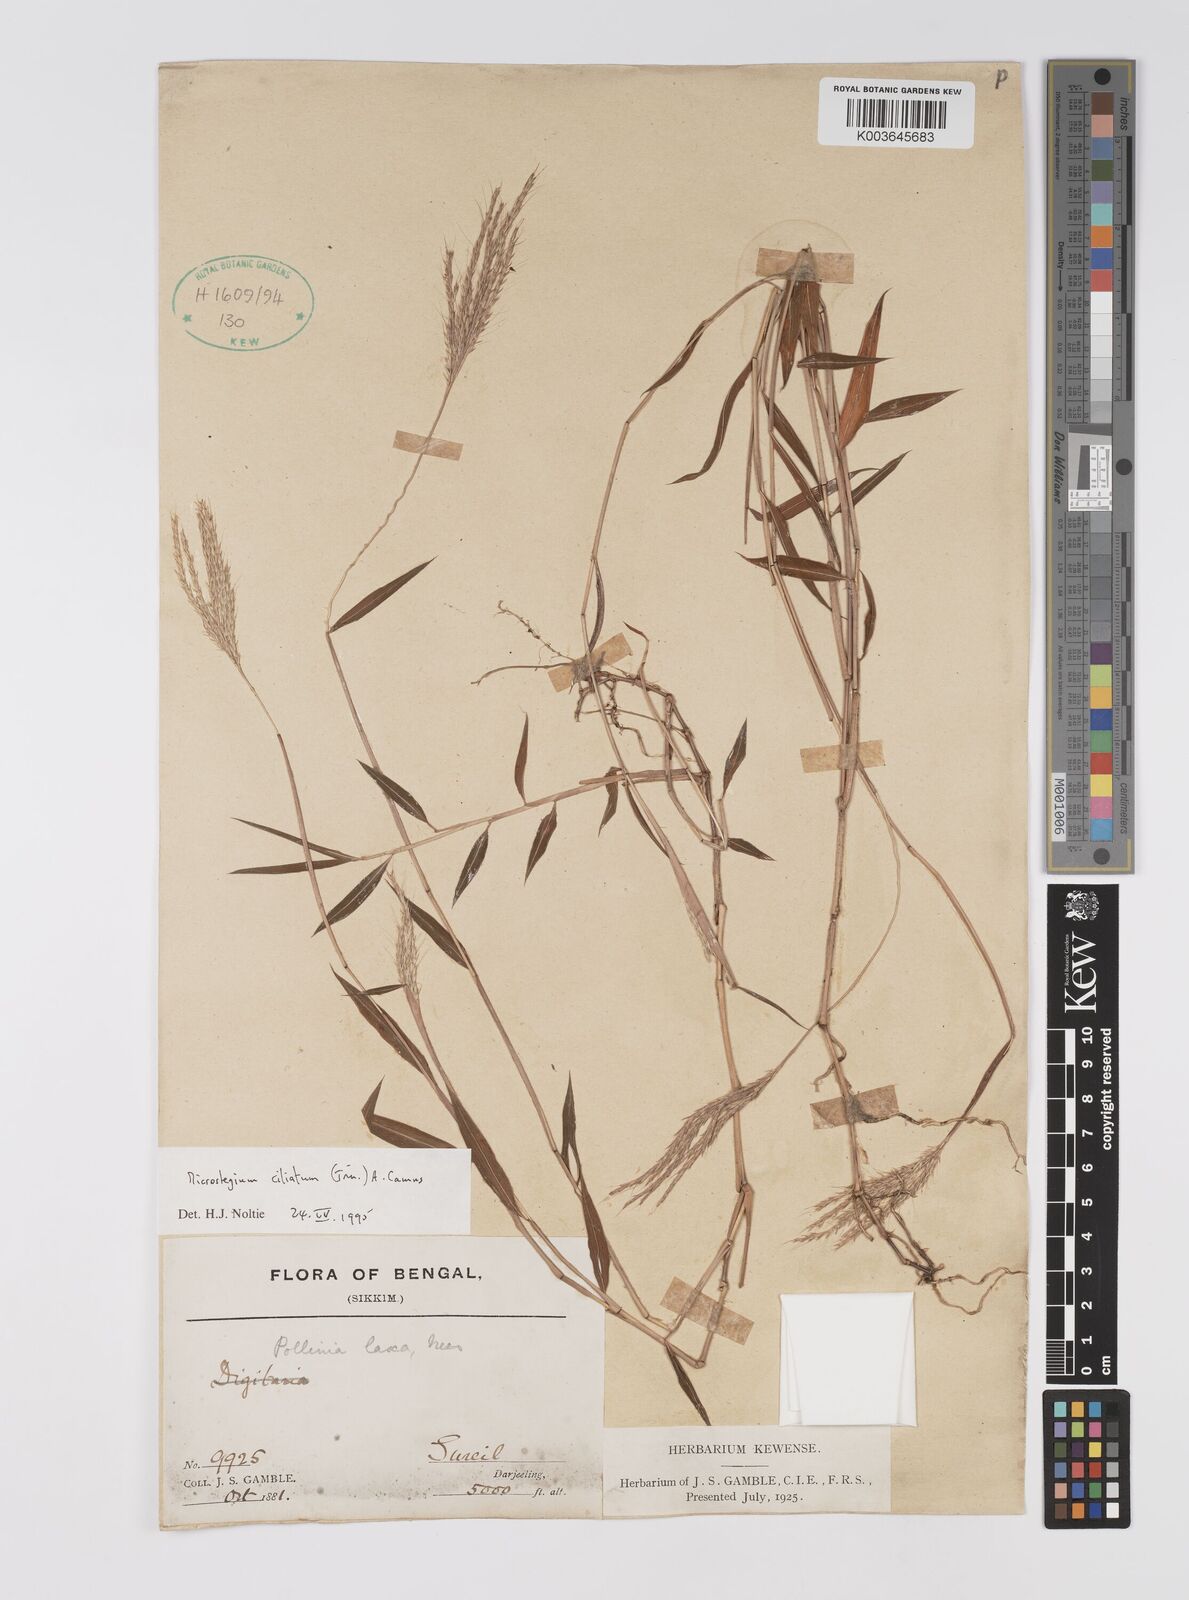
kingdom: Plantae
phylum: Tracheophyta
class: Liliopsida
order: Poales
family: Poaceae
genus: Microstegium
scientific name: Microstegium fasciculatum
